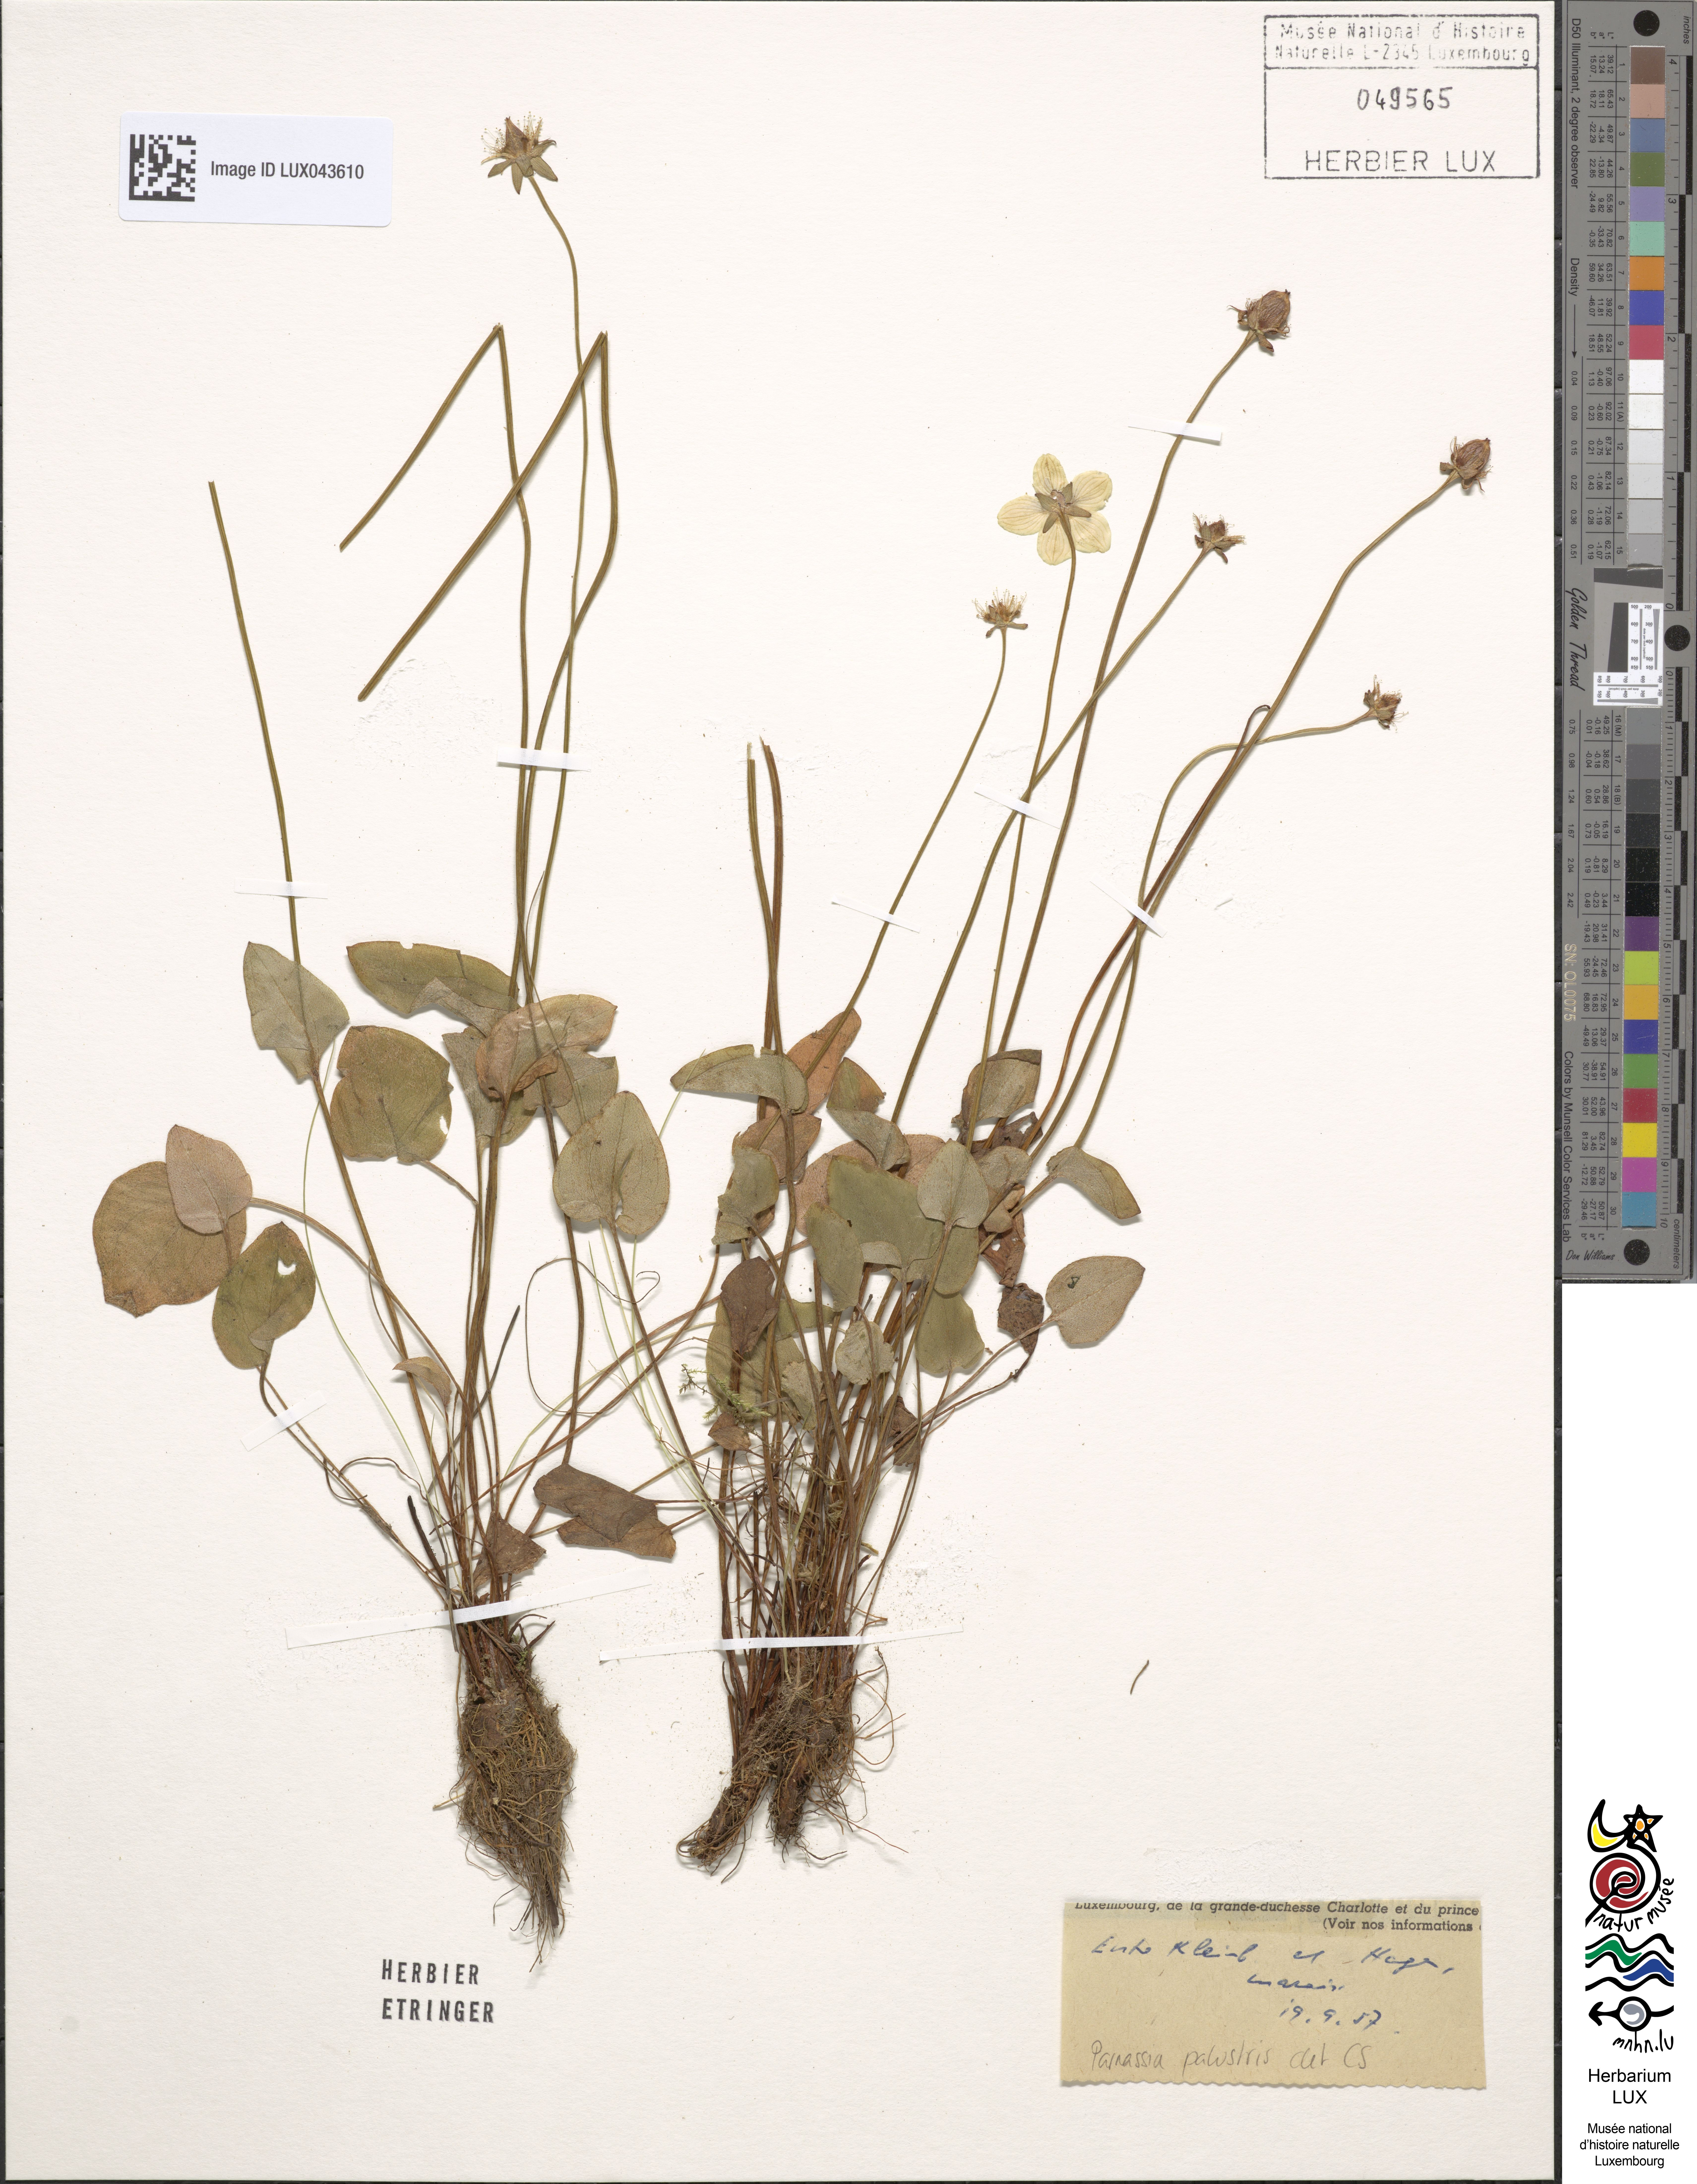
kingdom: Plantae
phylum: Tracheophyta
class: Magnoliopsida
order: Celastrales
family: Parnassiaceae
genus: Parnassia
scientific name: Parnassia palustris
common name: Grass-of-parnassus
